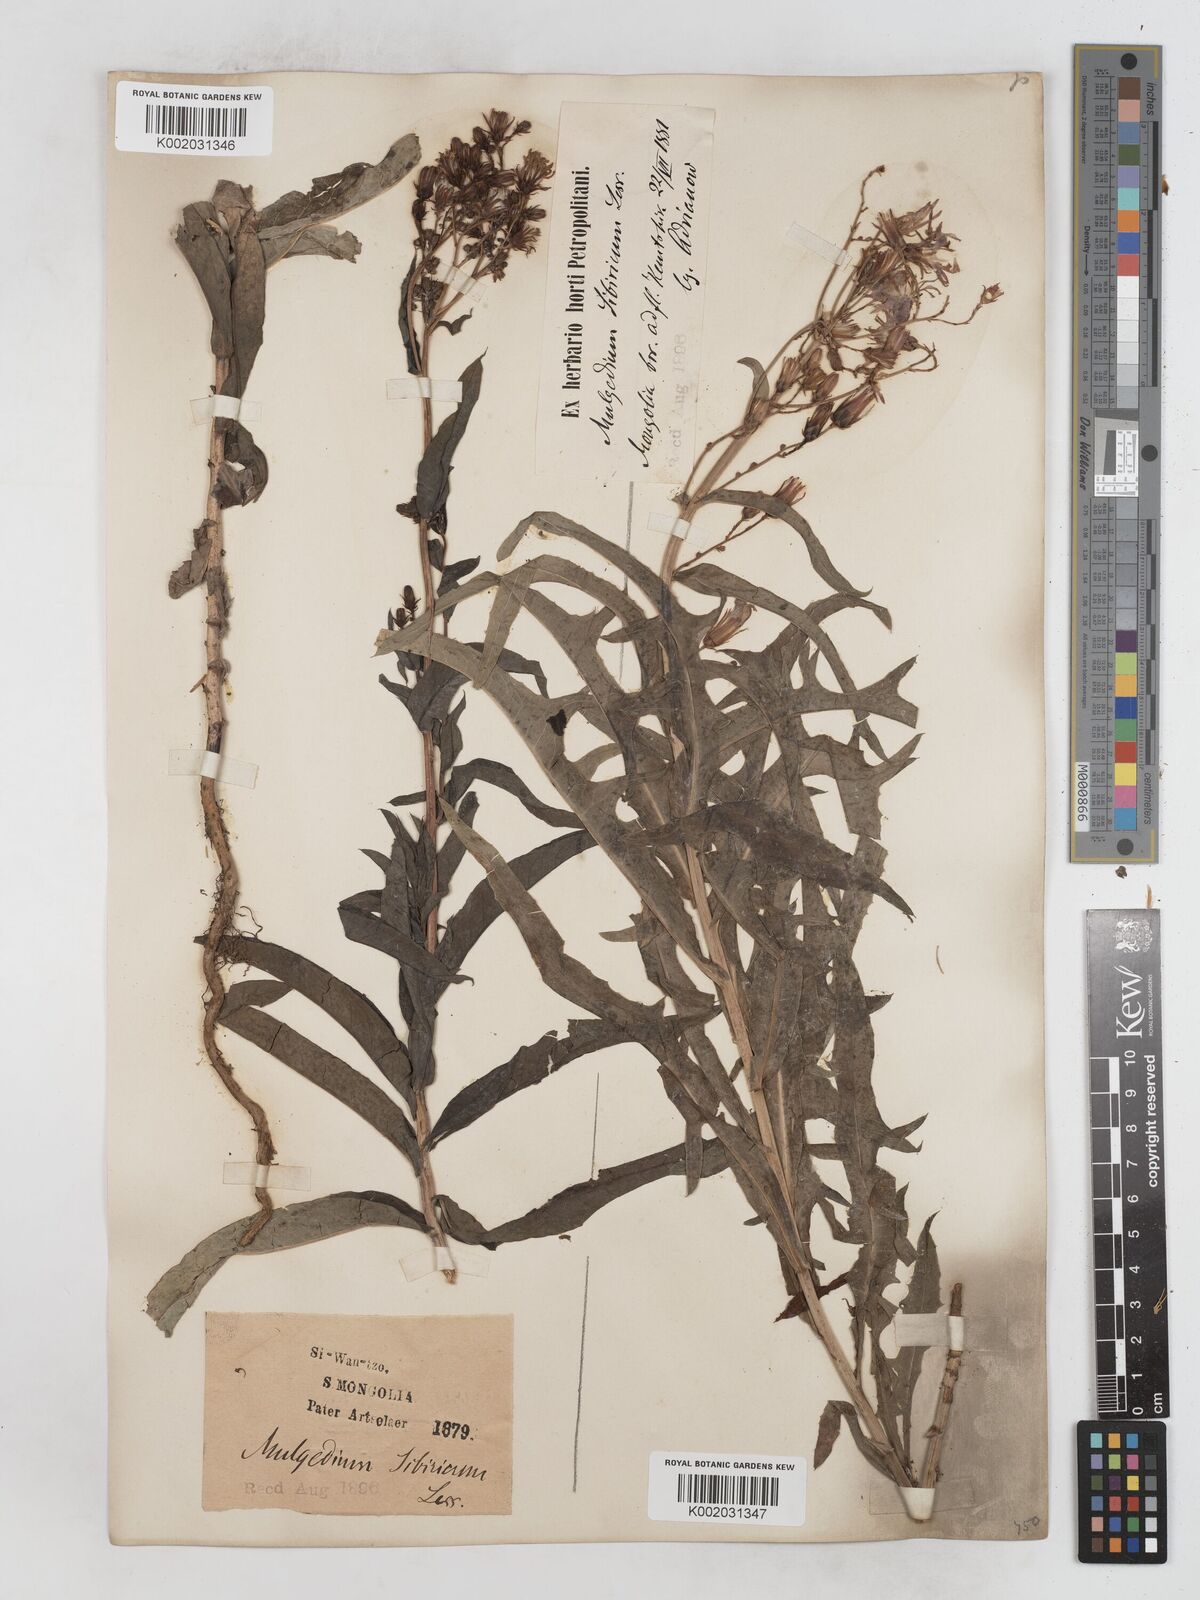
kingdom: Plantae
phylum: Tracheophyta
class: Magnoliopsida
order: Asterales
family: Asteraceae
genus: Lactuca
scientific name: Lactuca sibirica
